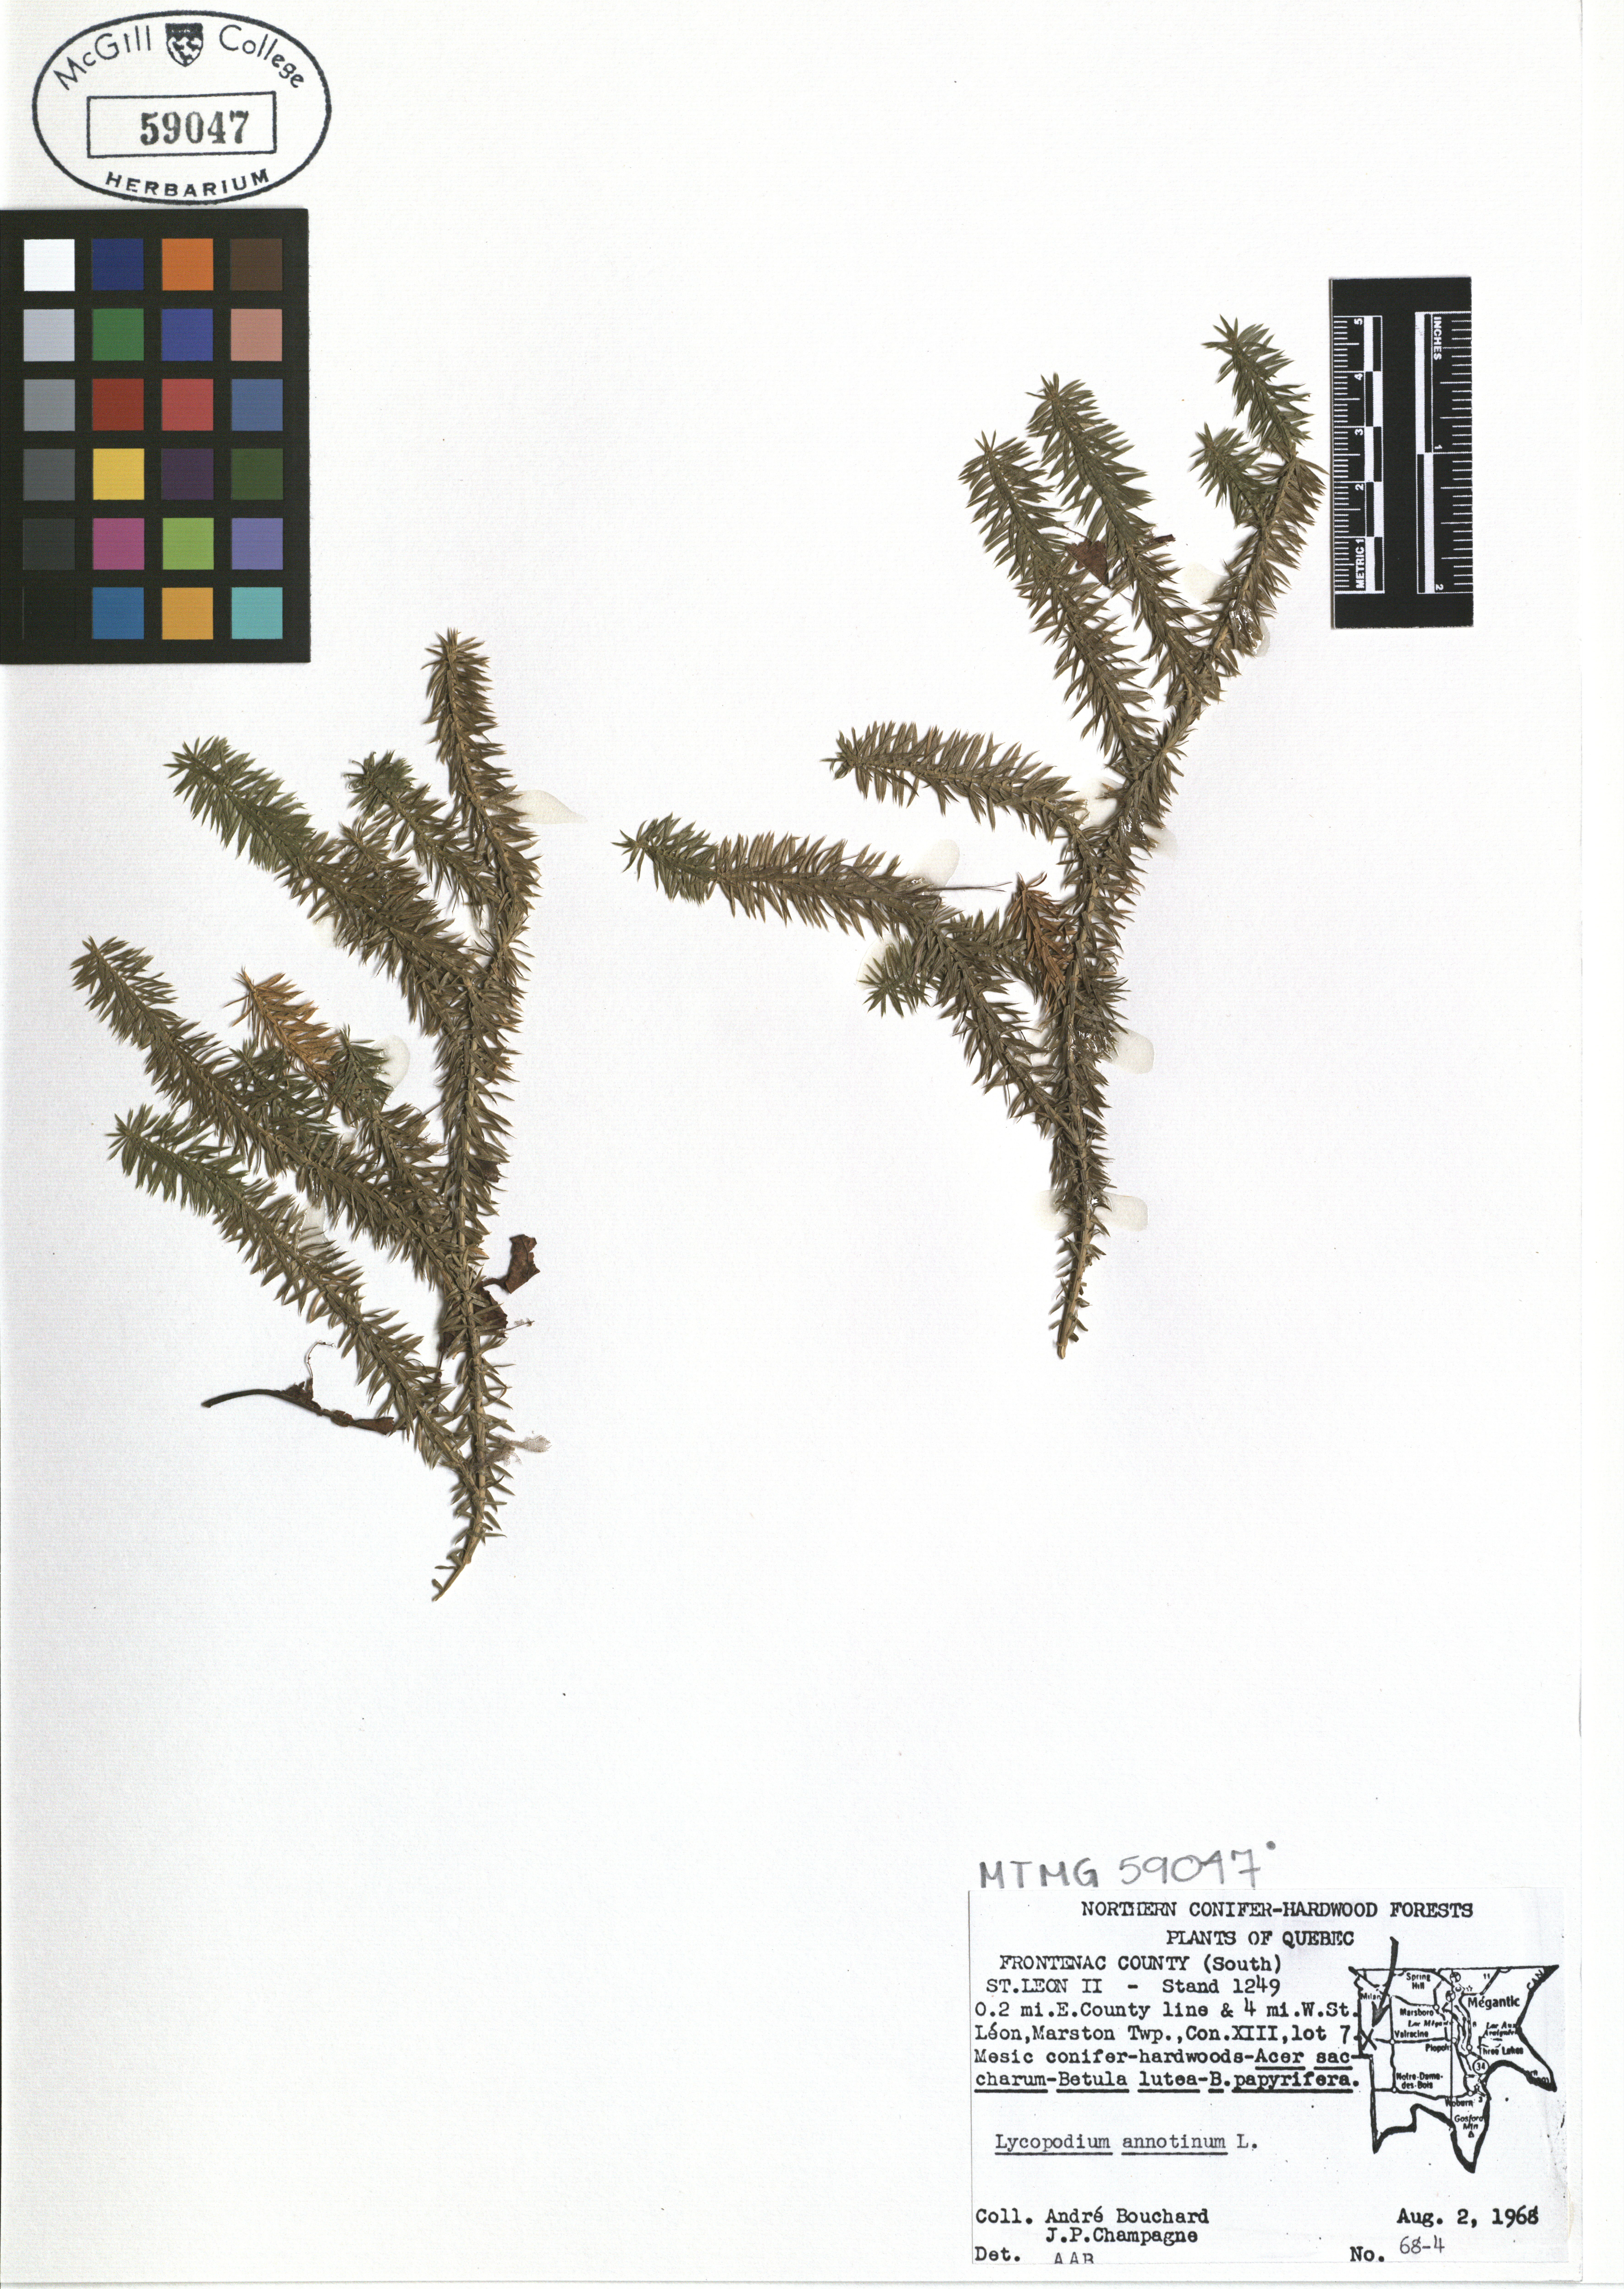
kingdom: Plantae
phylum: Tracheophyta
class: Lycopodiopsida
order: Lycopodiales
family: Lycopodiaceae
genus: Spinulum
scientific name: Spinulum annotinum
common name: Interrupted club-moss
